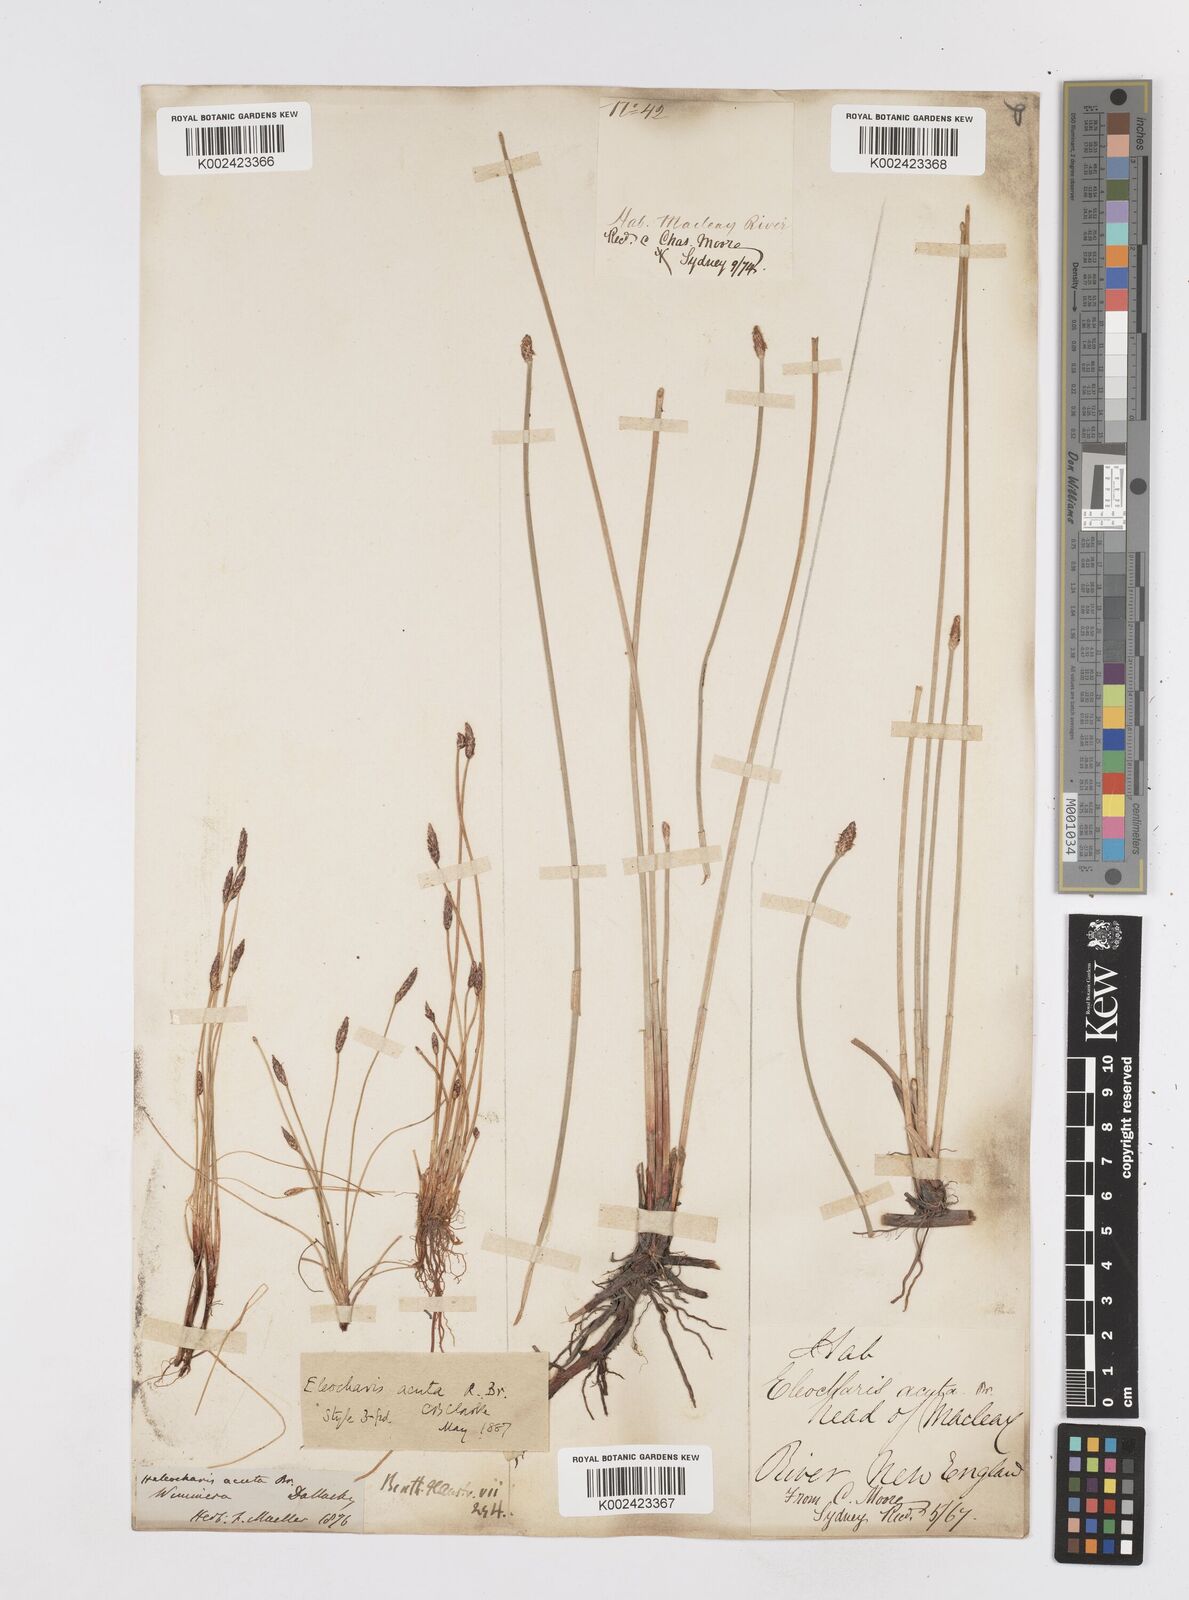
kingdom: Plantae
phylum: Tracheophyta
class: Liliopsida
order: Poales
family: Cyperaceae
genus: Eleocharis
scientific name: Eleocharis acuta
